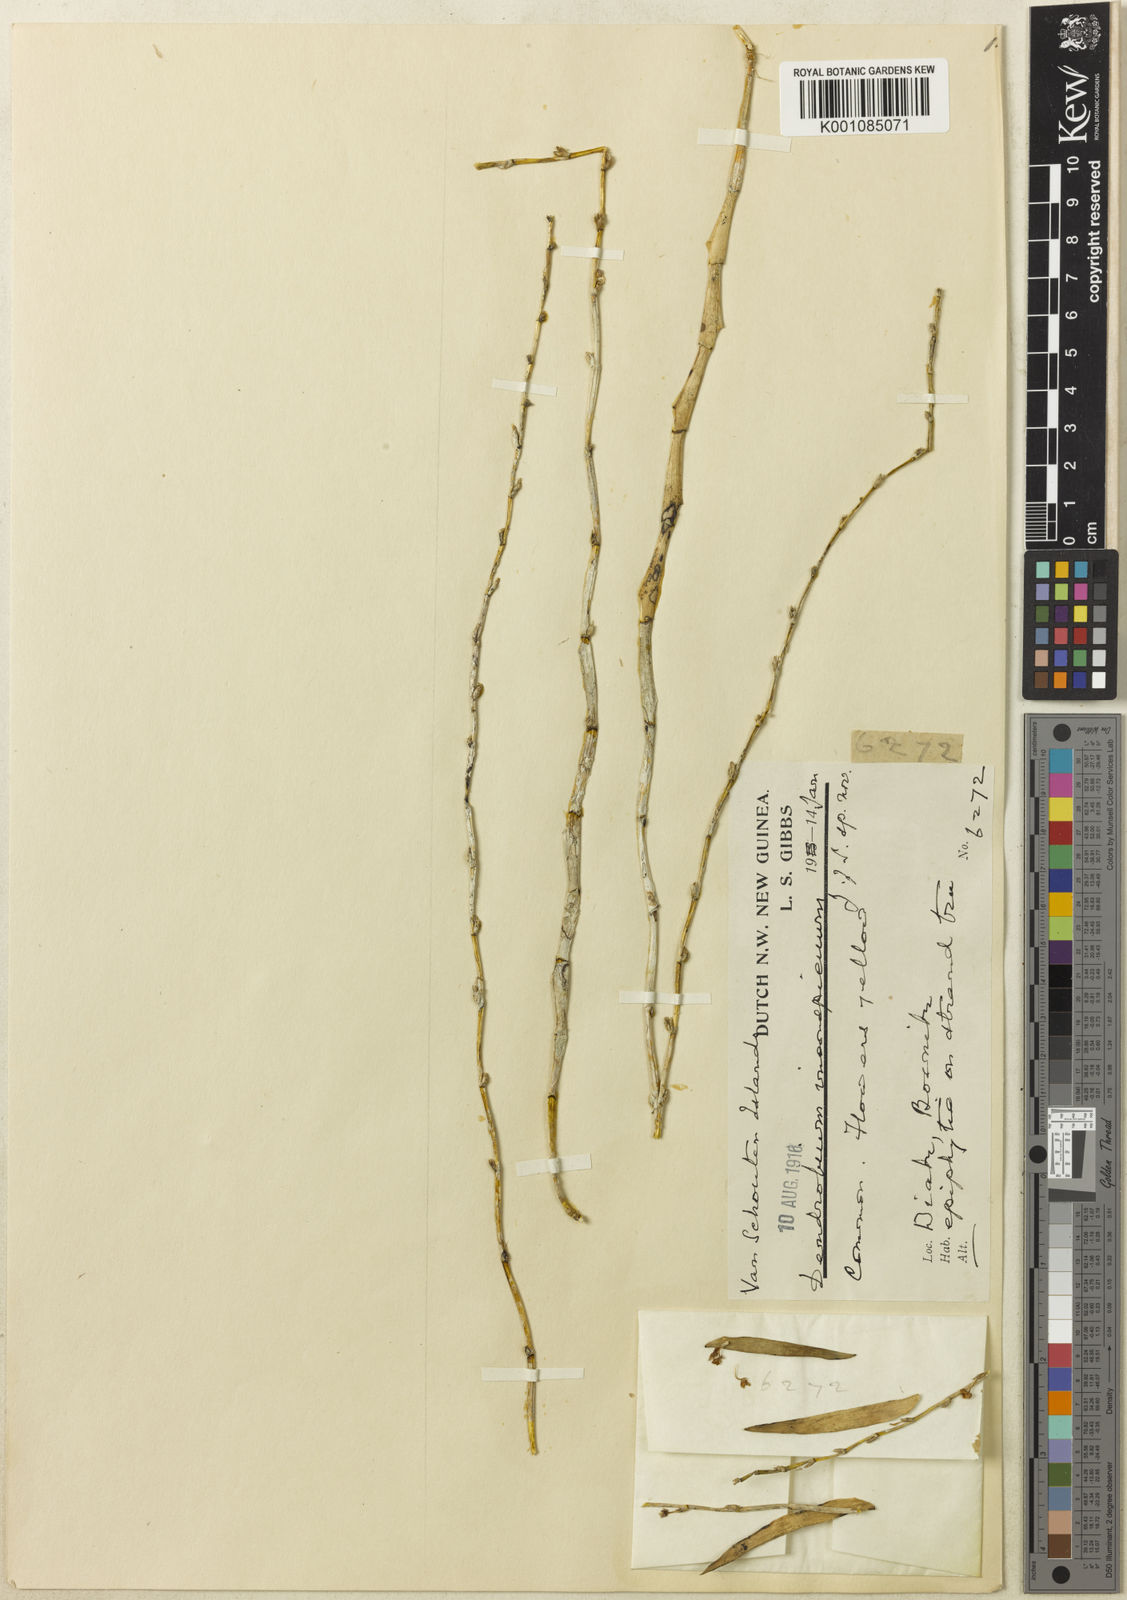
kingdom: Plantae
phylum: Tracheophyta
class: Liliopsida
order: Asparagales
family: Orchidaceae
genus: Dendrobium
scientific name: Dendrobium inconspicuum
